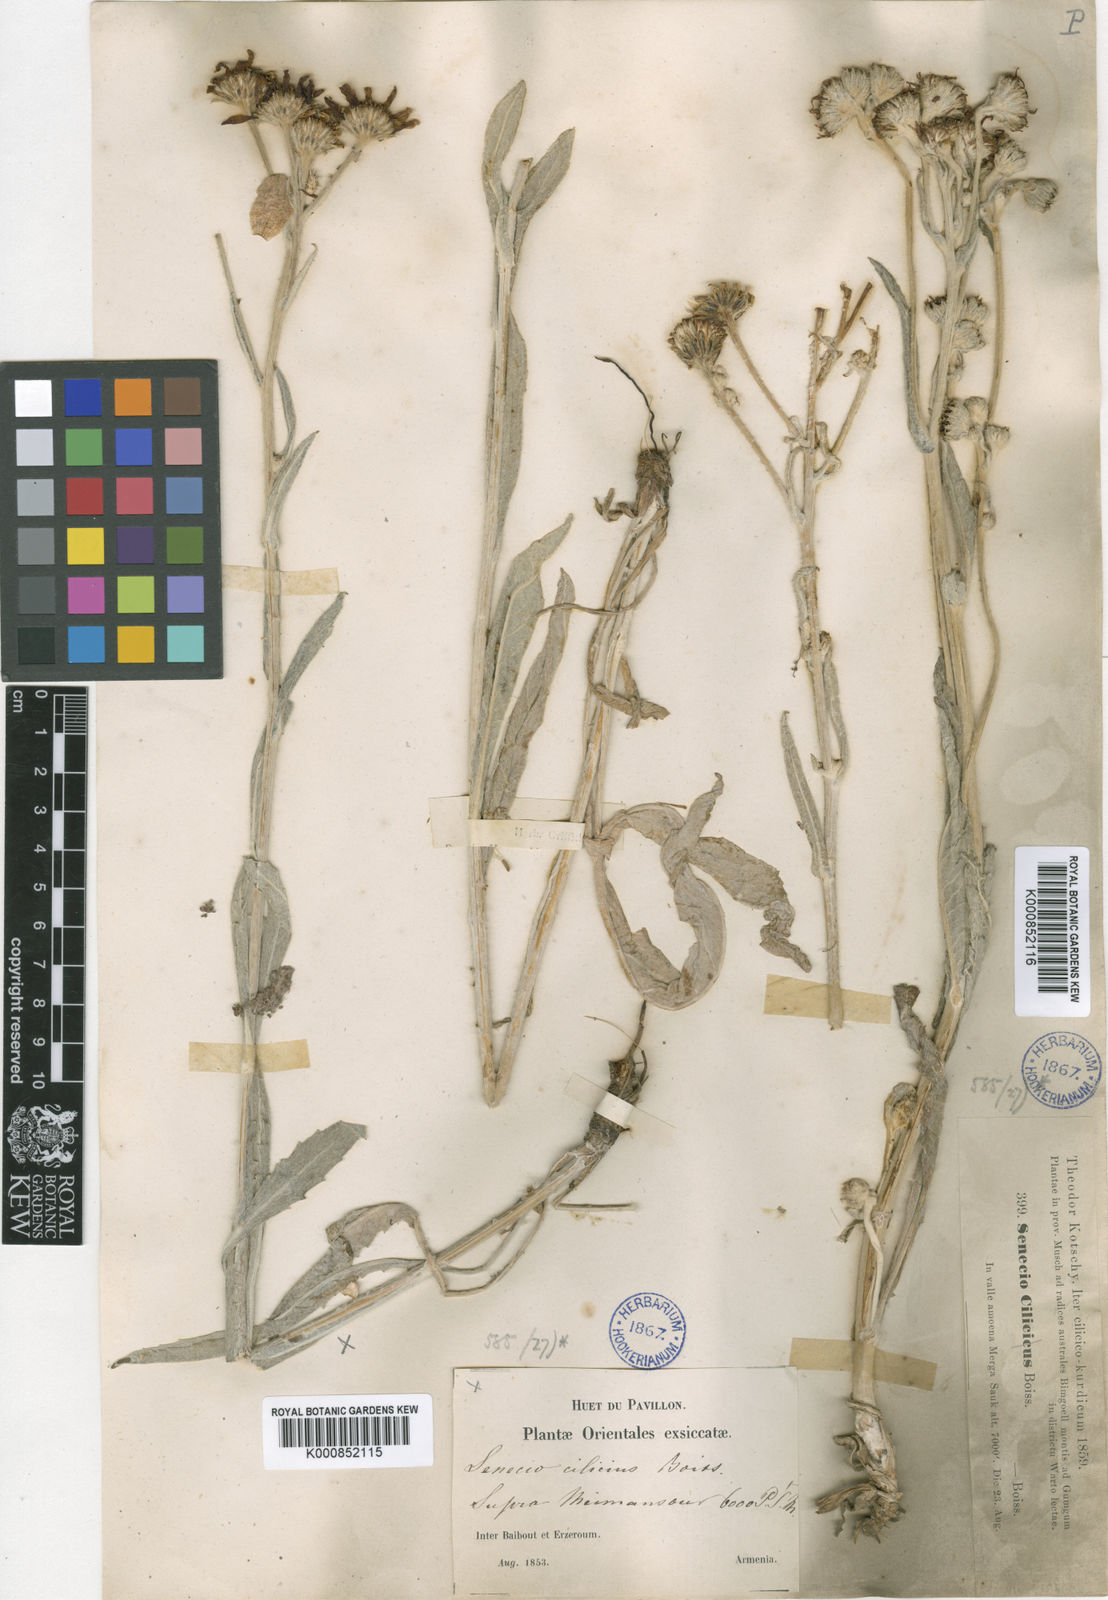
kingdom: Plantae
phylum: Tracheophyta
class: Magnoliopsida
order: Asterales
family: Asteraceae
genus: Jacobaea
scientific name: Jacobaea cilicia
